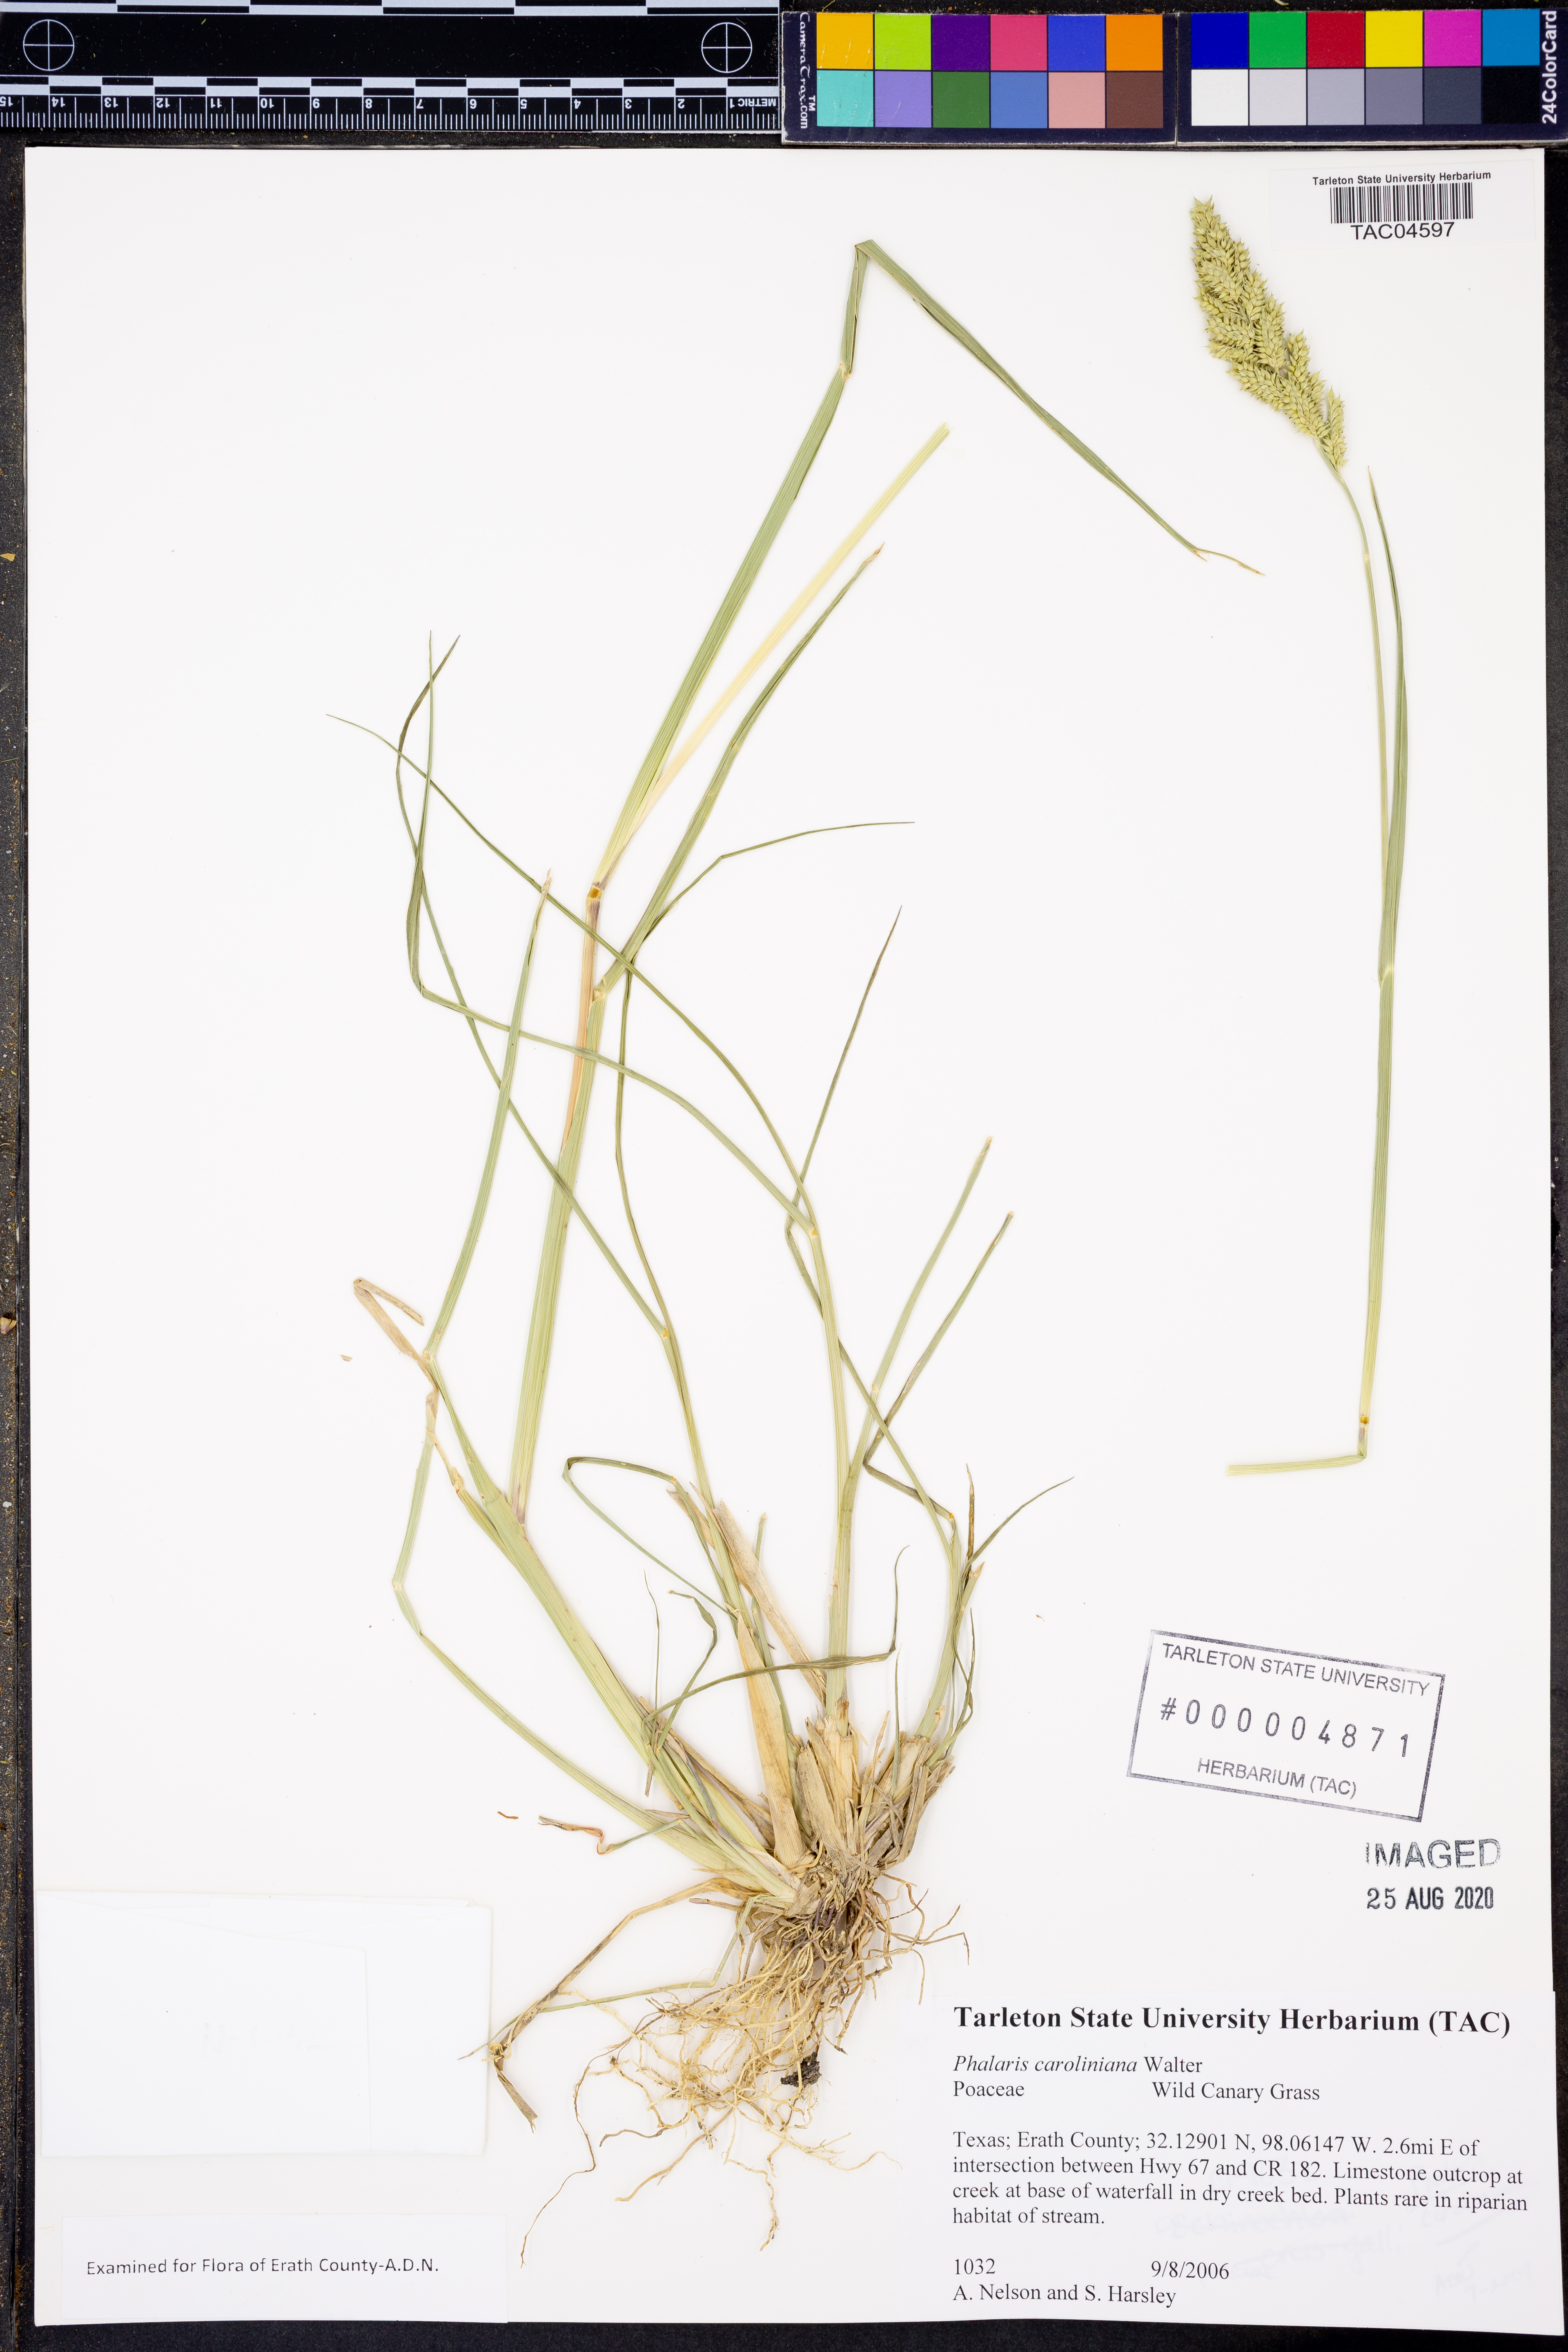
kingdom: Plantae
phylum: Tracheophyta
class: Liliopsida
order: Poales
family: Poaceae
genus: Phalaris
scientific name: Phalaris caroliniana
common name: May grass
